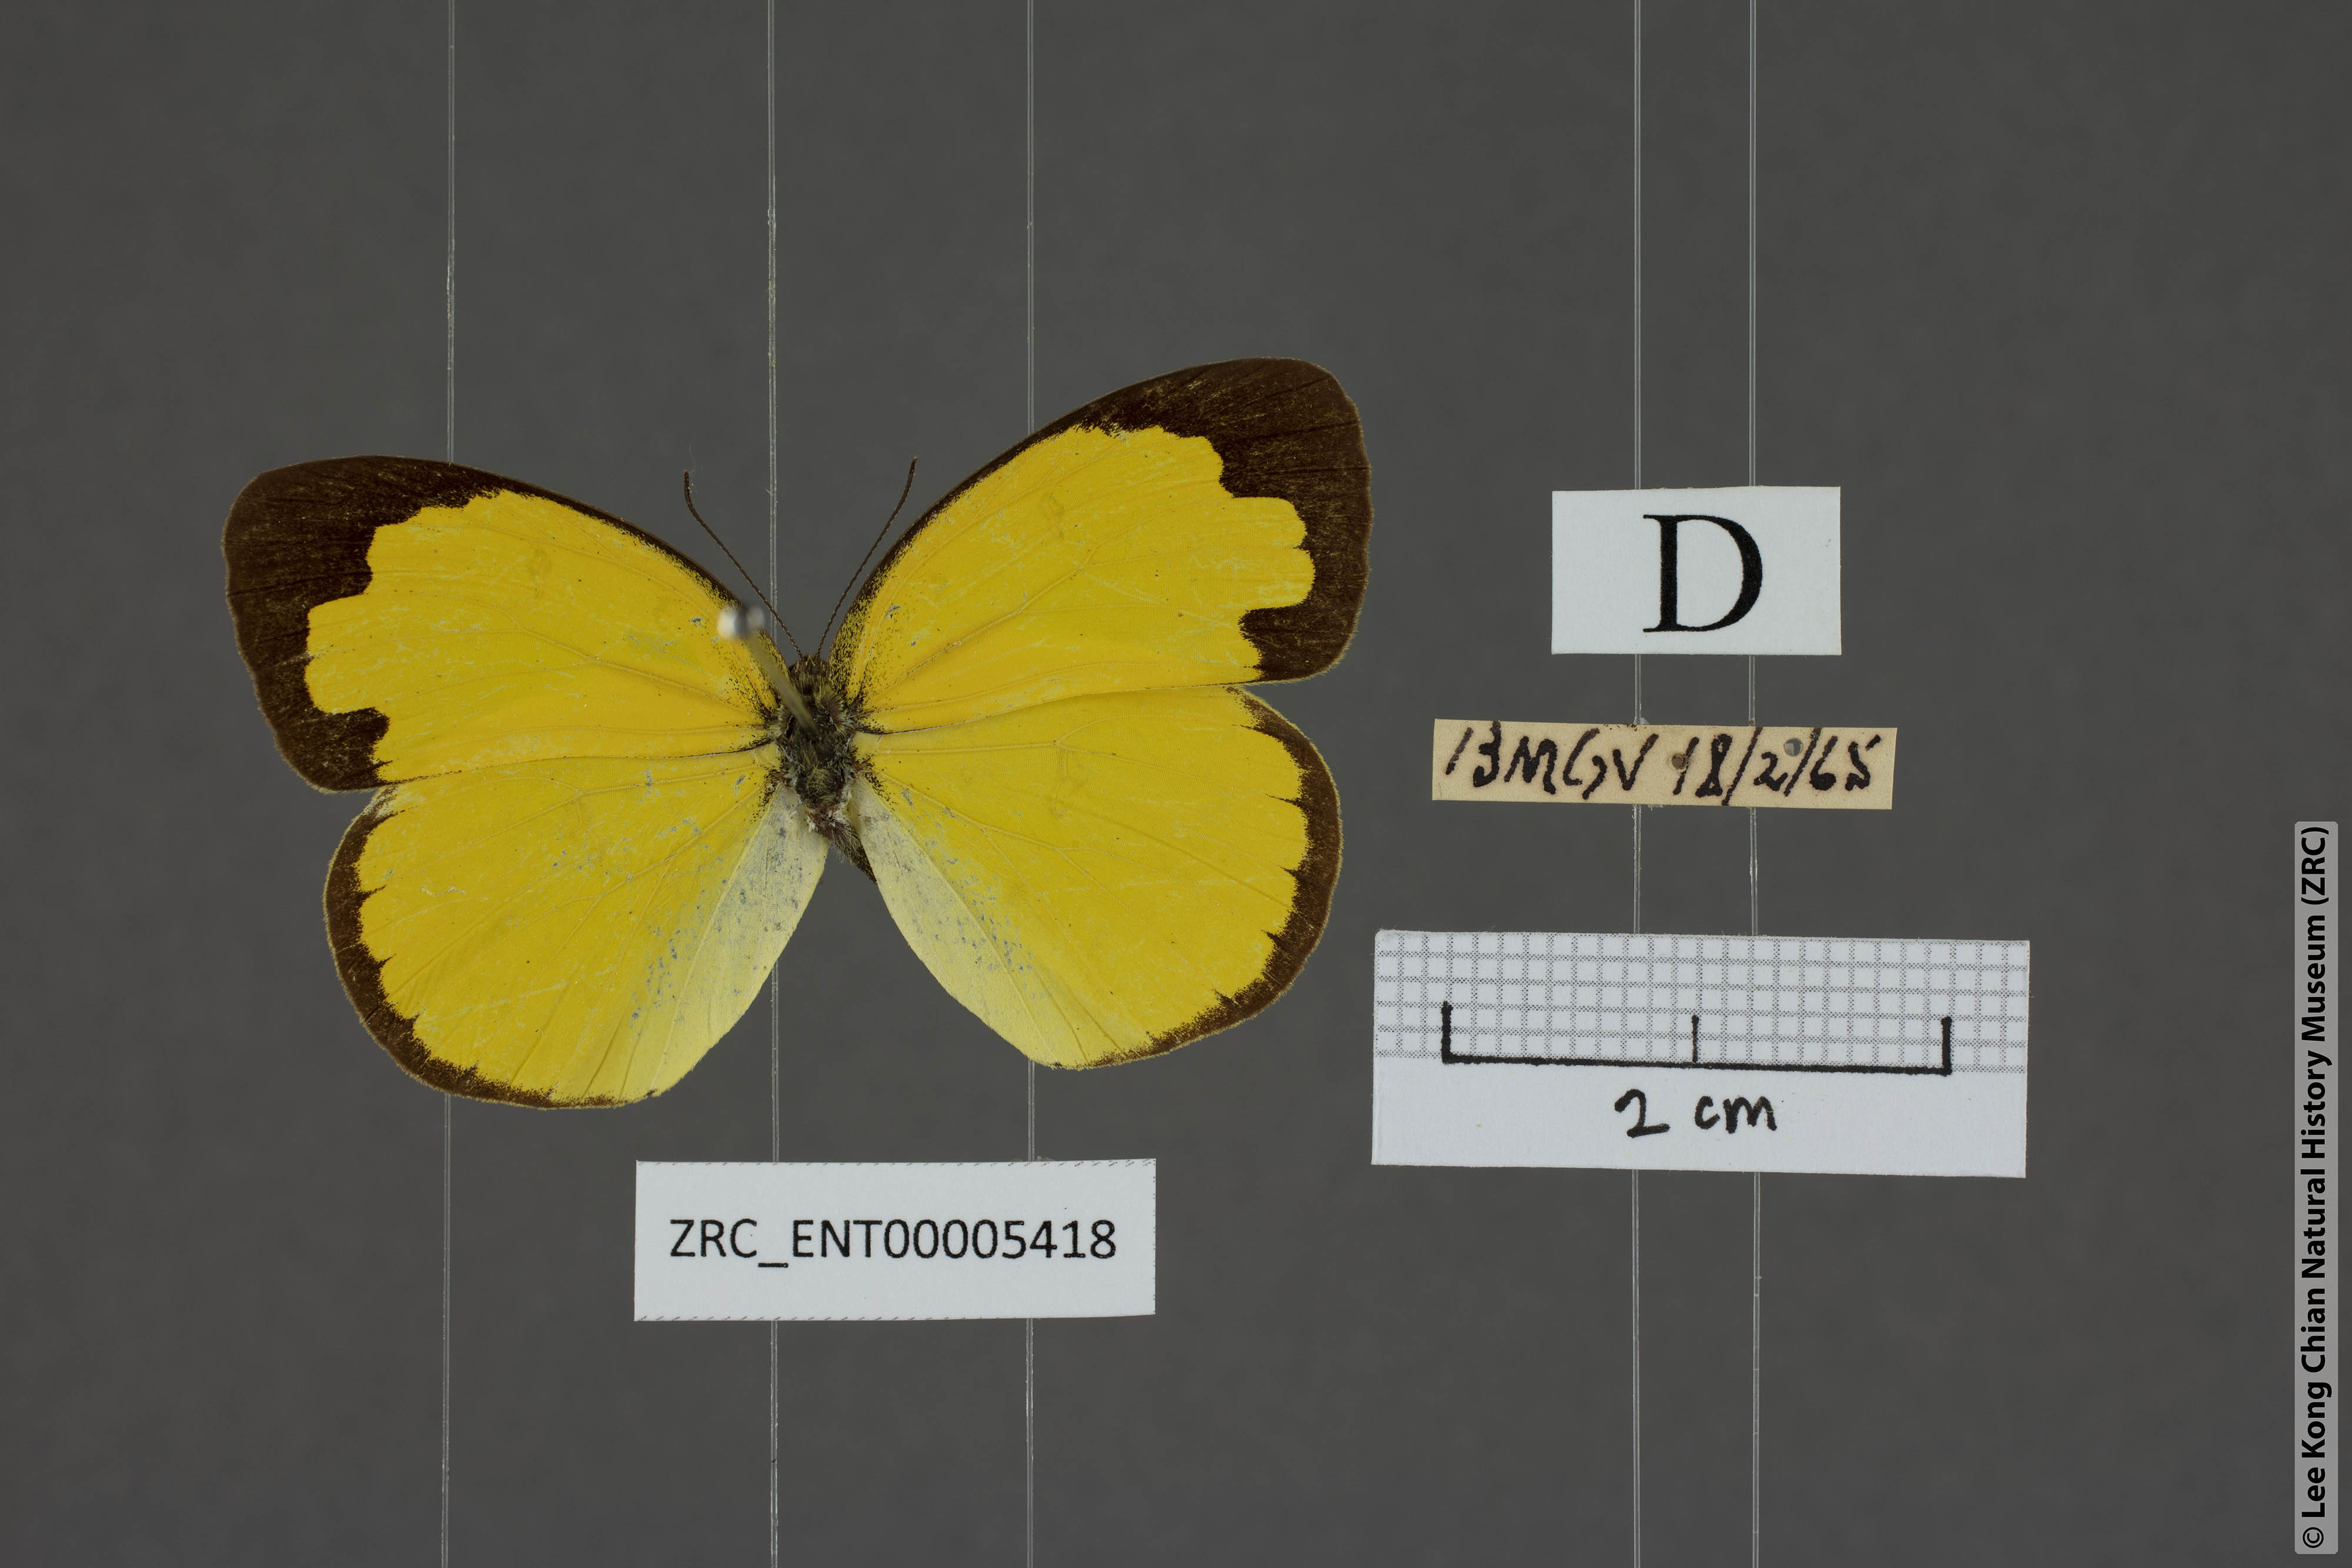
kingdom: Animalia
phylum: Arthropoda
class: Insecta
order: Lepidoptera
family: Pieridae
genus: Eurema
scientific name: Eurema andersoni
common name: One-spot yellow grass
